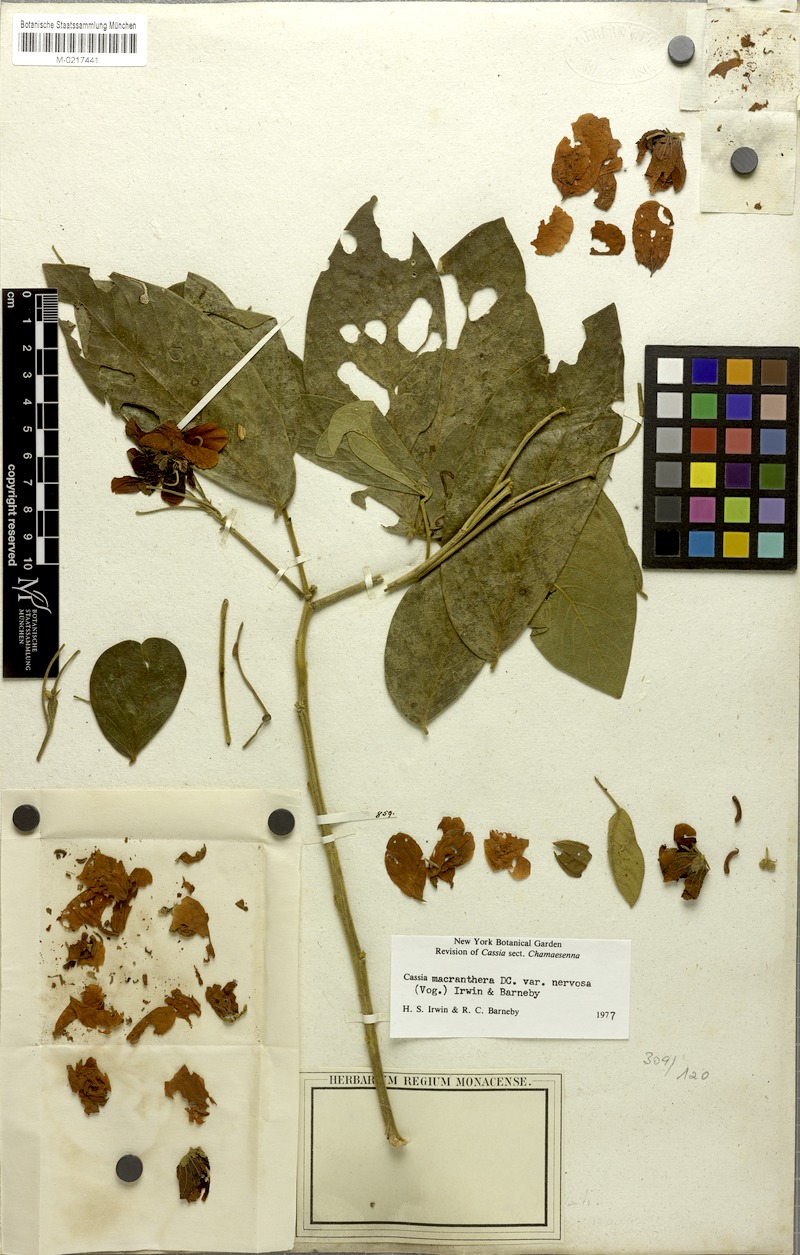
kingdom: Plantae
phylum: Tracheophyta
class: Magnoliopsida
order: Fabales
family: Fabaceae
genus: Cassia
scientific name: Cassia
